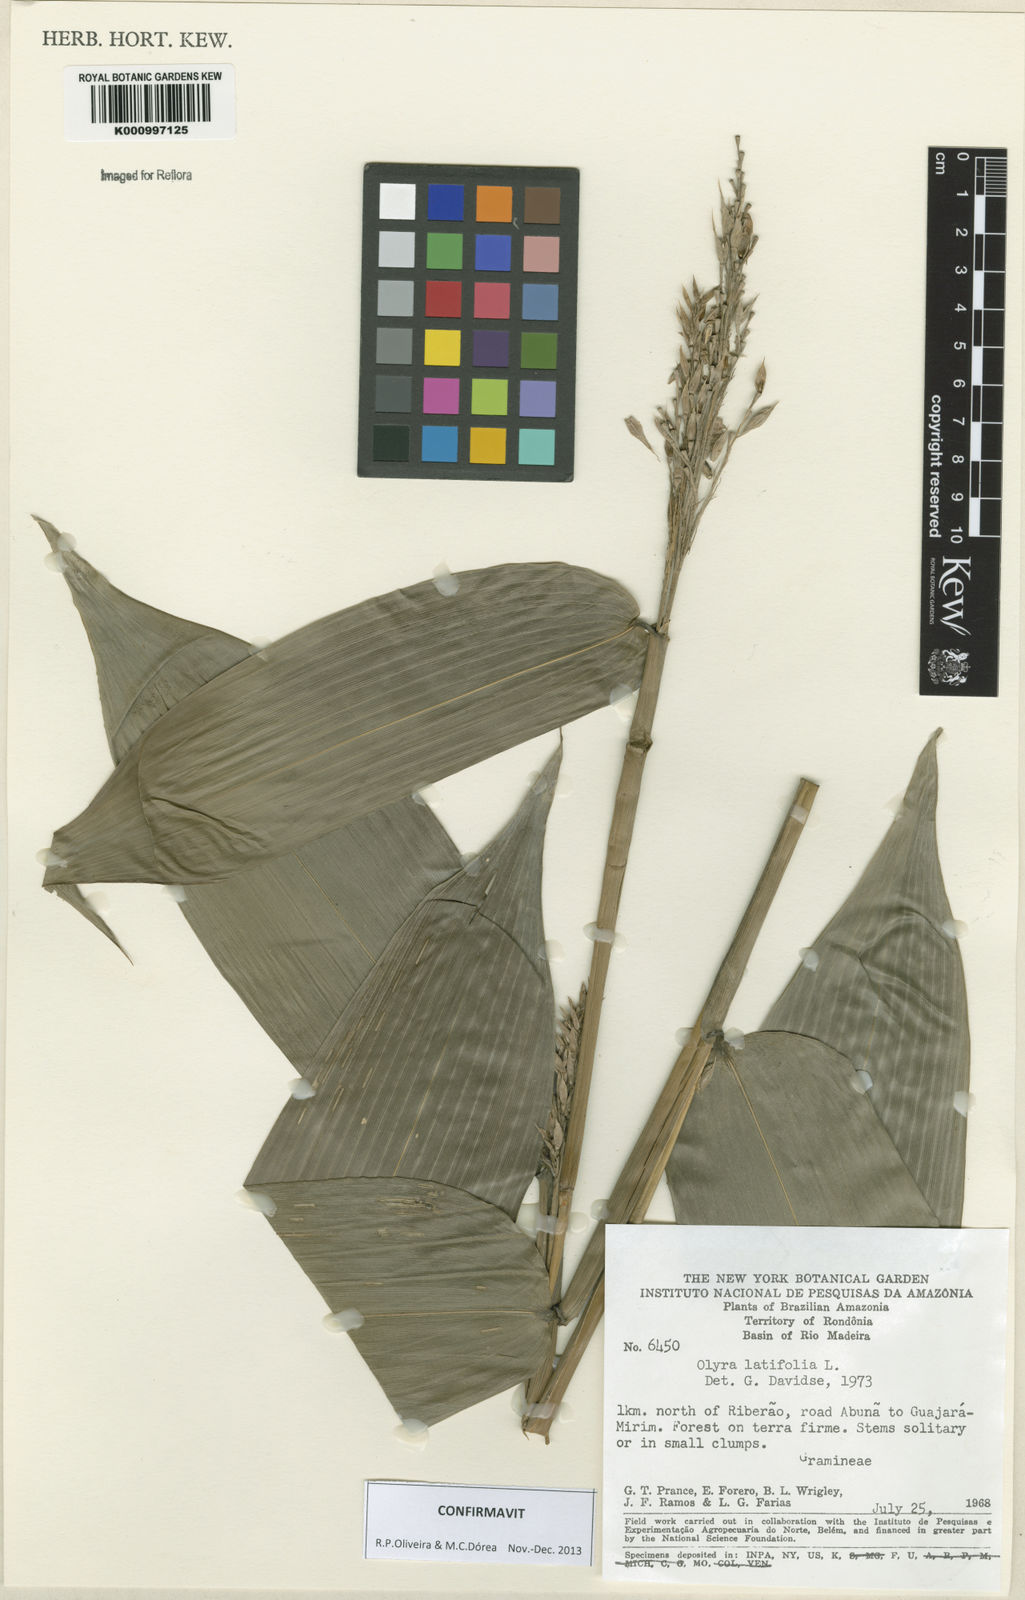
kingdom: Plantae
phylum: Tracheophyta
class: Liliopsida
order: Poales
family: Poaceae
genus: Olyra
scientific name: Olyra latifolia
